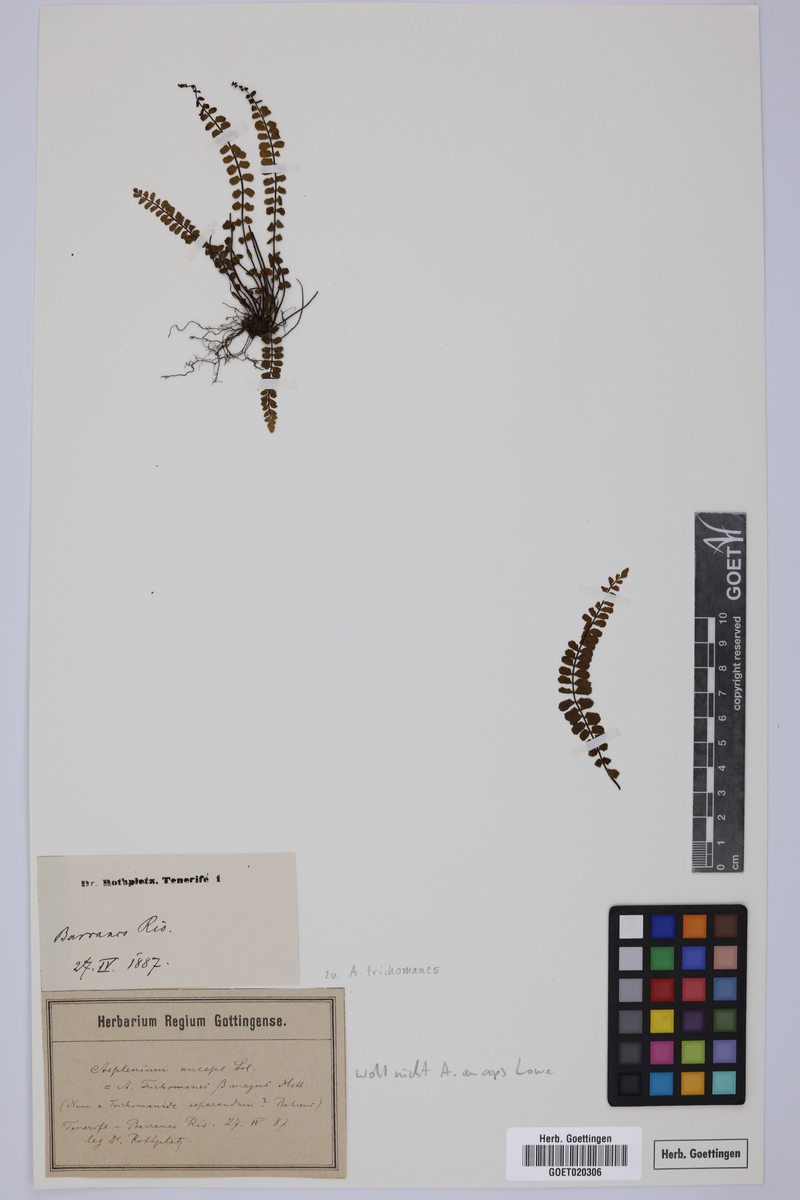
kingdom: Plantae
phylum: Tracheophyta
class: Polypodiopsida
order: Polypodiales
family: Aspleniaceae
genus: Asplenium
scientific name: Asplenium trichomanes
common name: Maidenhair spleenwort
